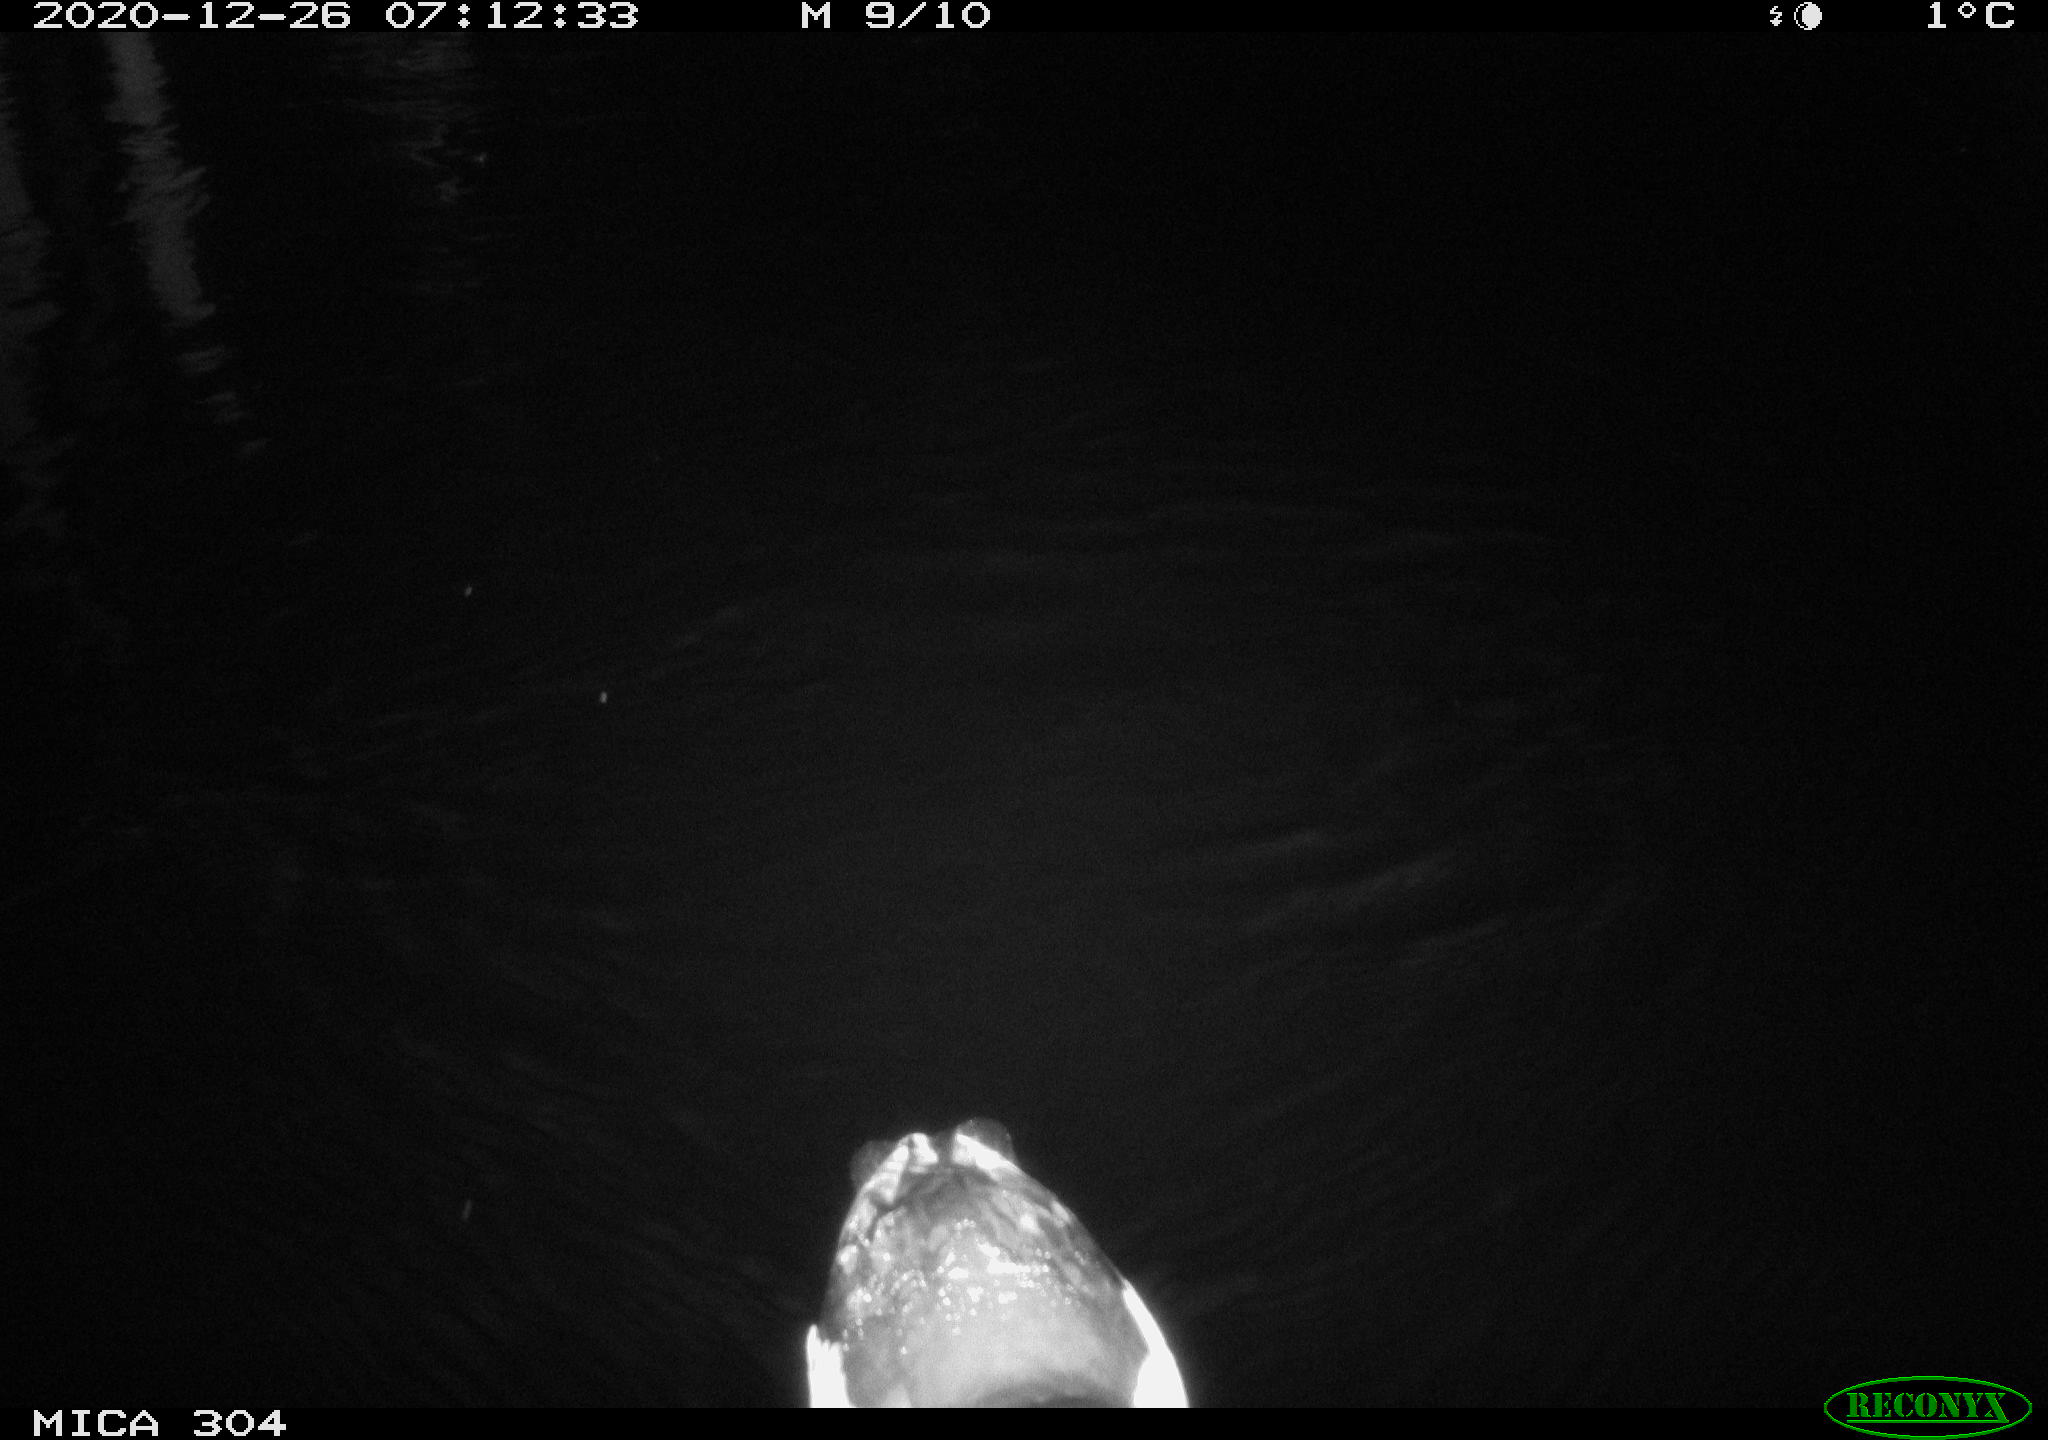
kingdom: Animalia
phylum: Chordata
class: Aves
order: Gruiformes
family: Rallidae
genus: Gallinula
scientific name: Gallinula chloropus
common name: Common moorhen
